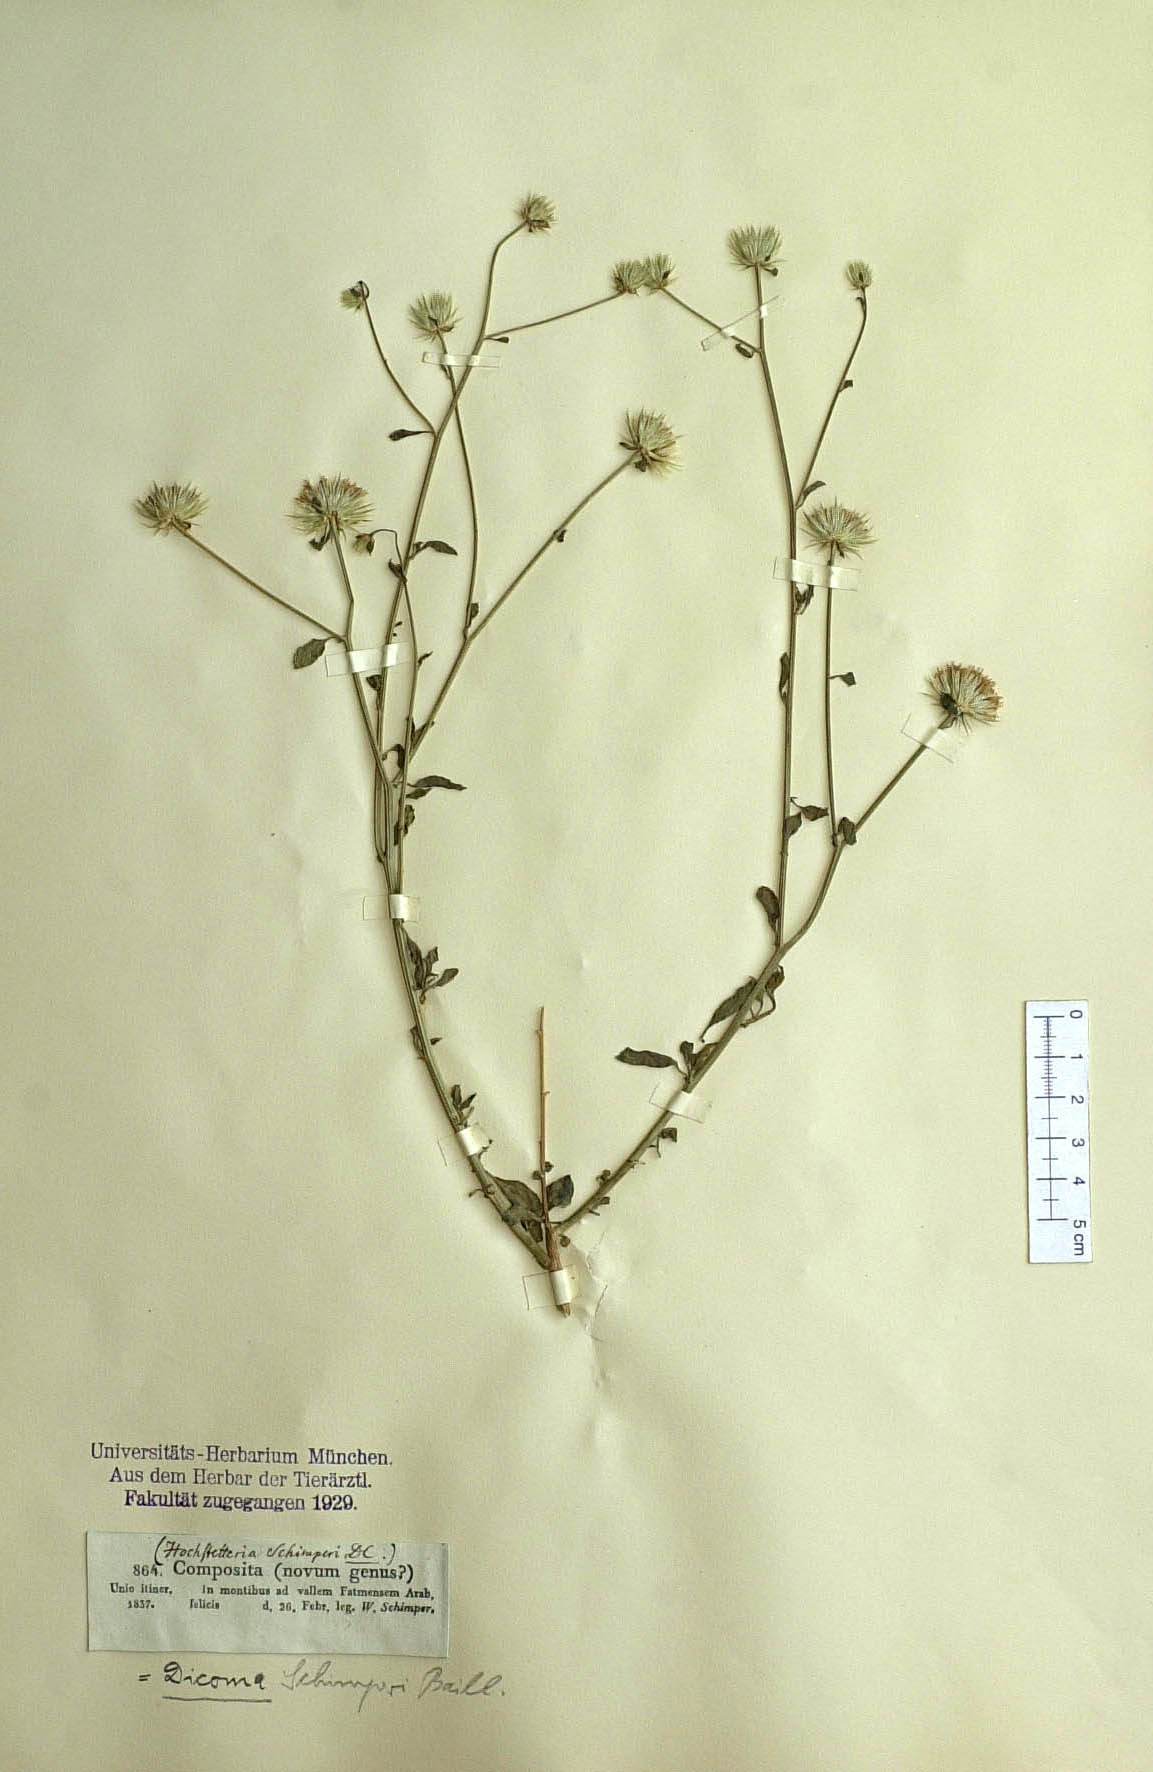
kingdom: Plantae
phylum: Tracheophyta
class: Magnoliopsida
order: Asterales
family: Asteraceae
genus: Dicoma
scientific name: Dicoma schimperi
